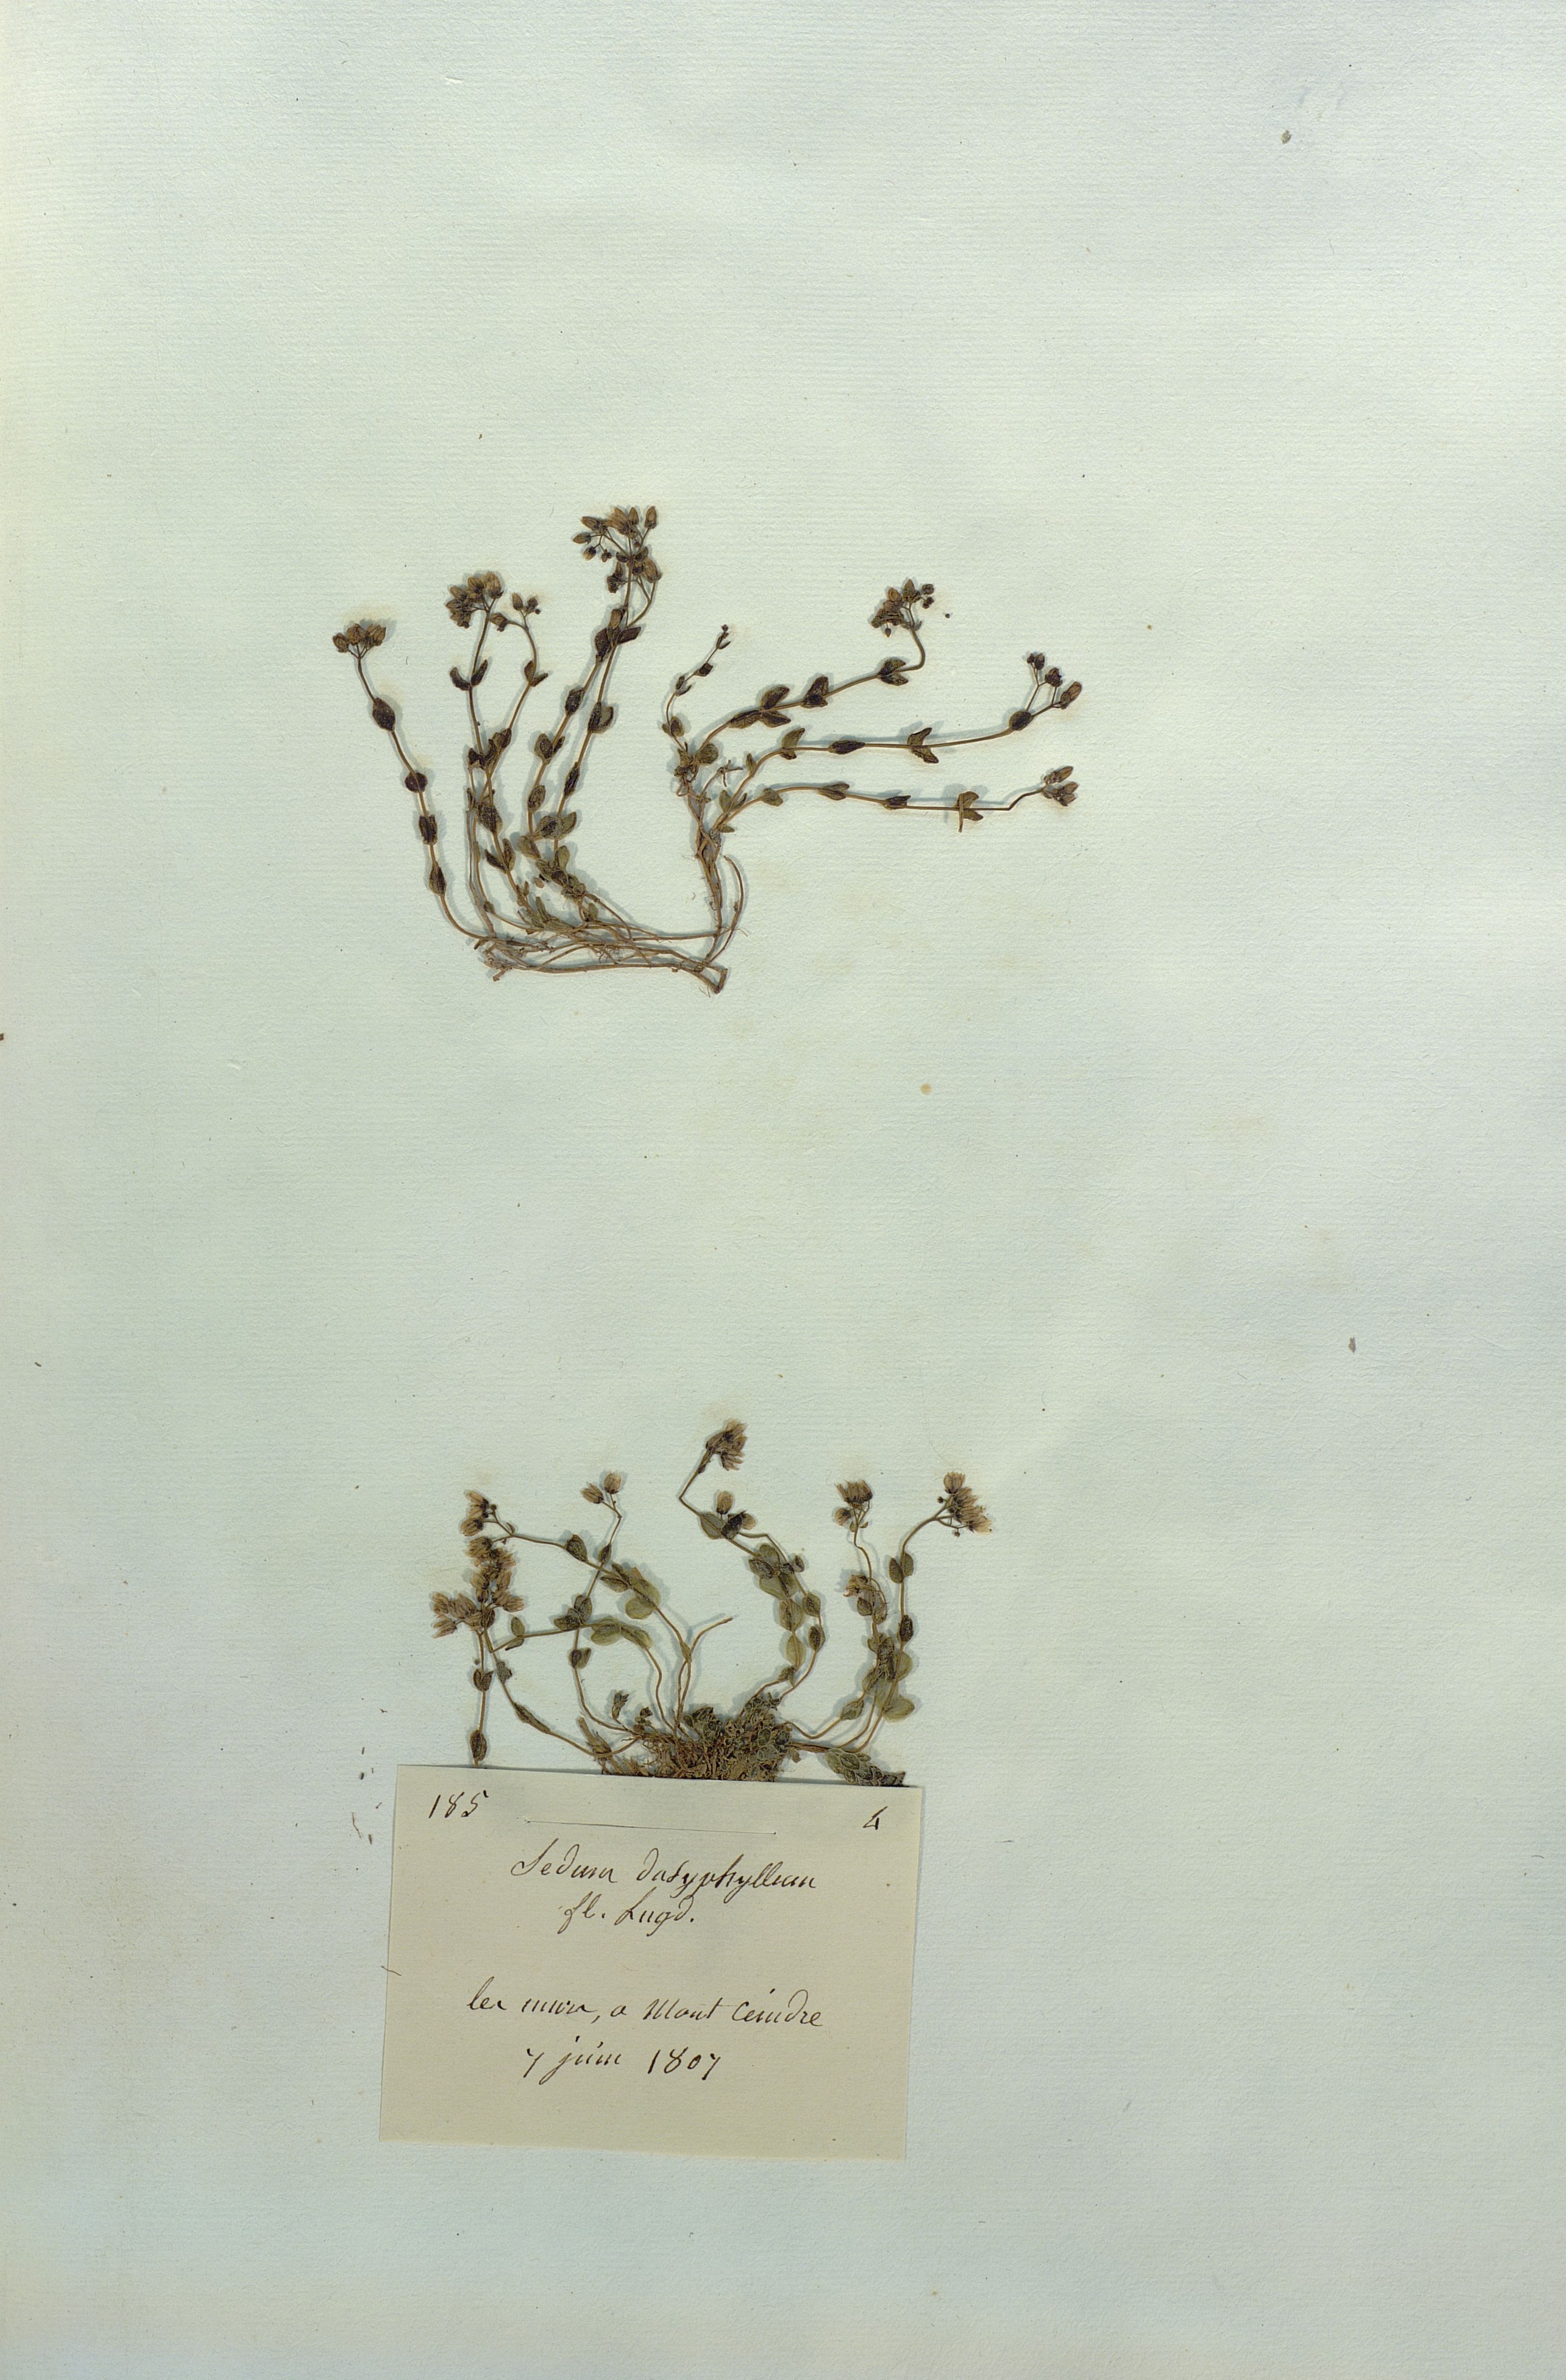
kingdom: Plantae
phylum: Tracheophyta
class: Magnoliopsida
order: Saxifragales
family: Crassulaceae
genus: Sedum
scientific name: Sedum dasyphyllum
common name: Thick-leaf stonecrop
